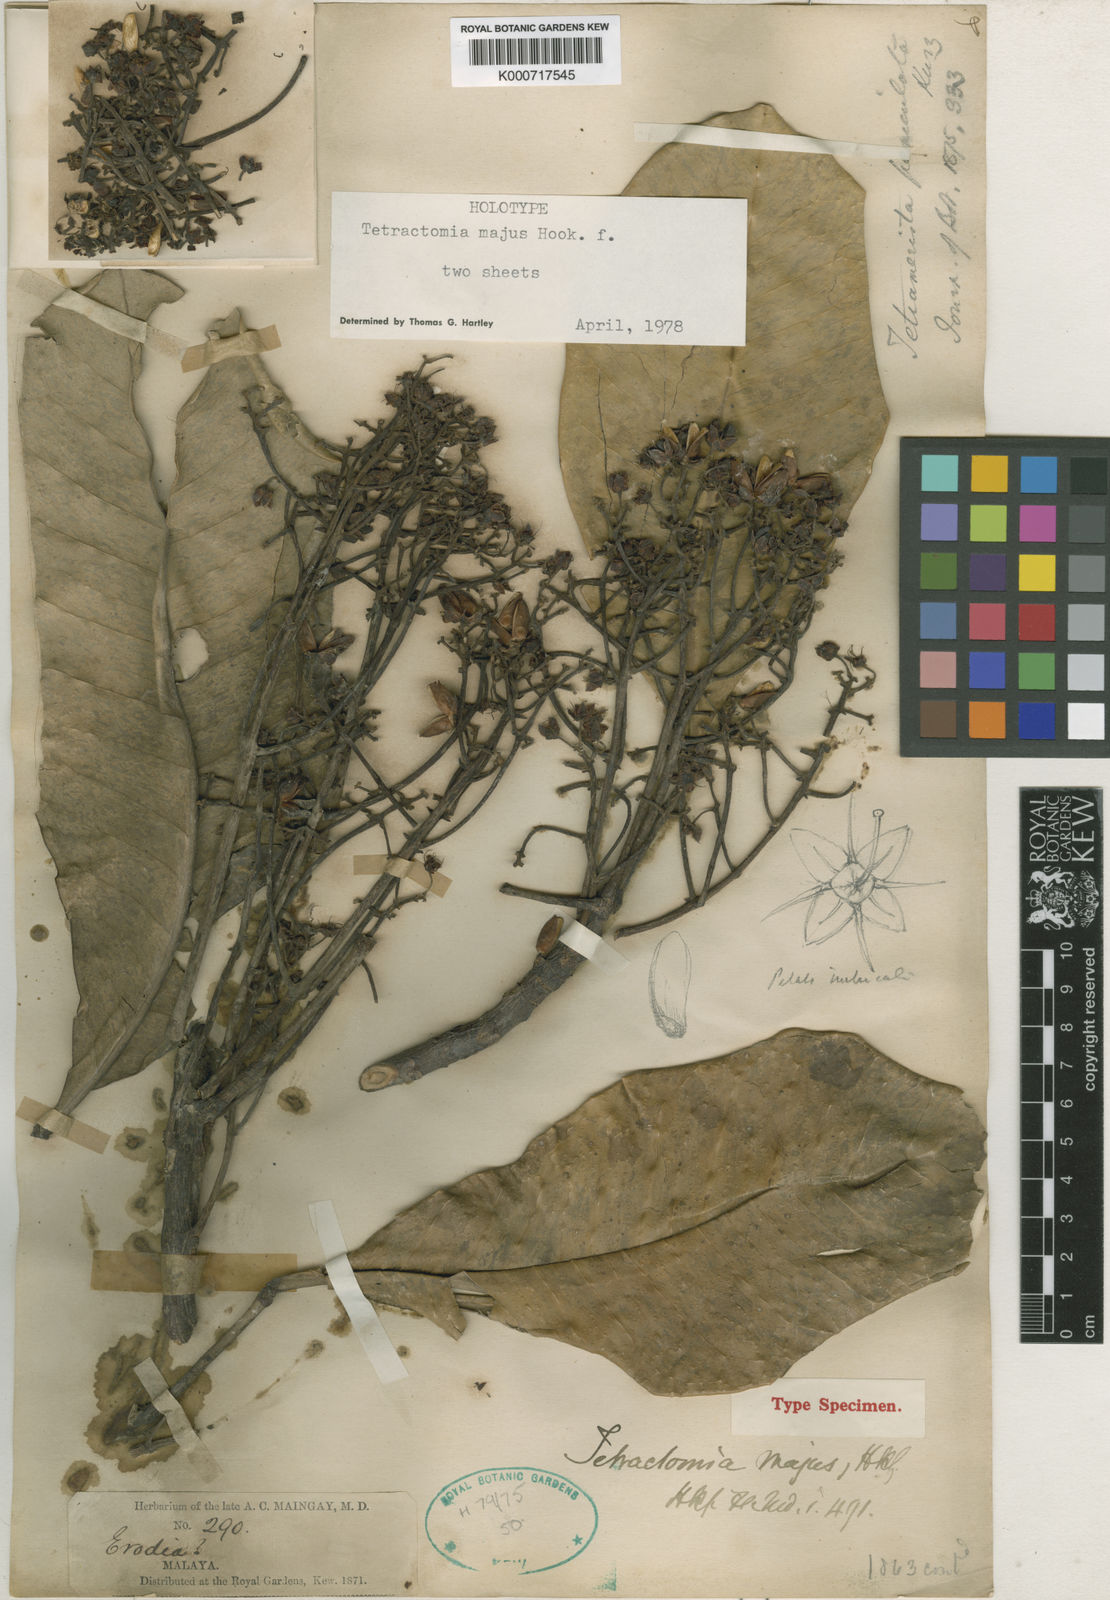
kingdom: Plantae
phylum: Tracheophyta
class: Magnoliopsida
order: Sapindales
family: Rutaceae
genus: Tetractomia
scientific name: Tetractomia majus
